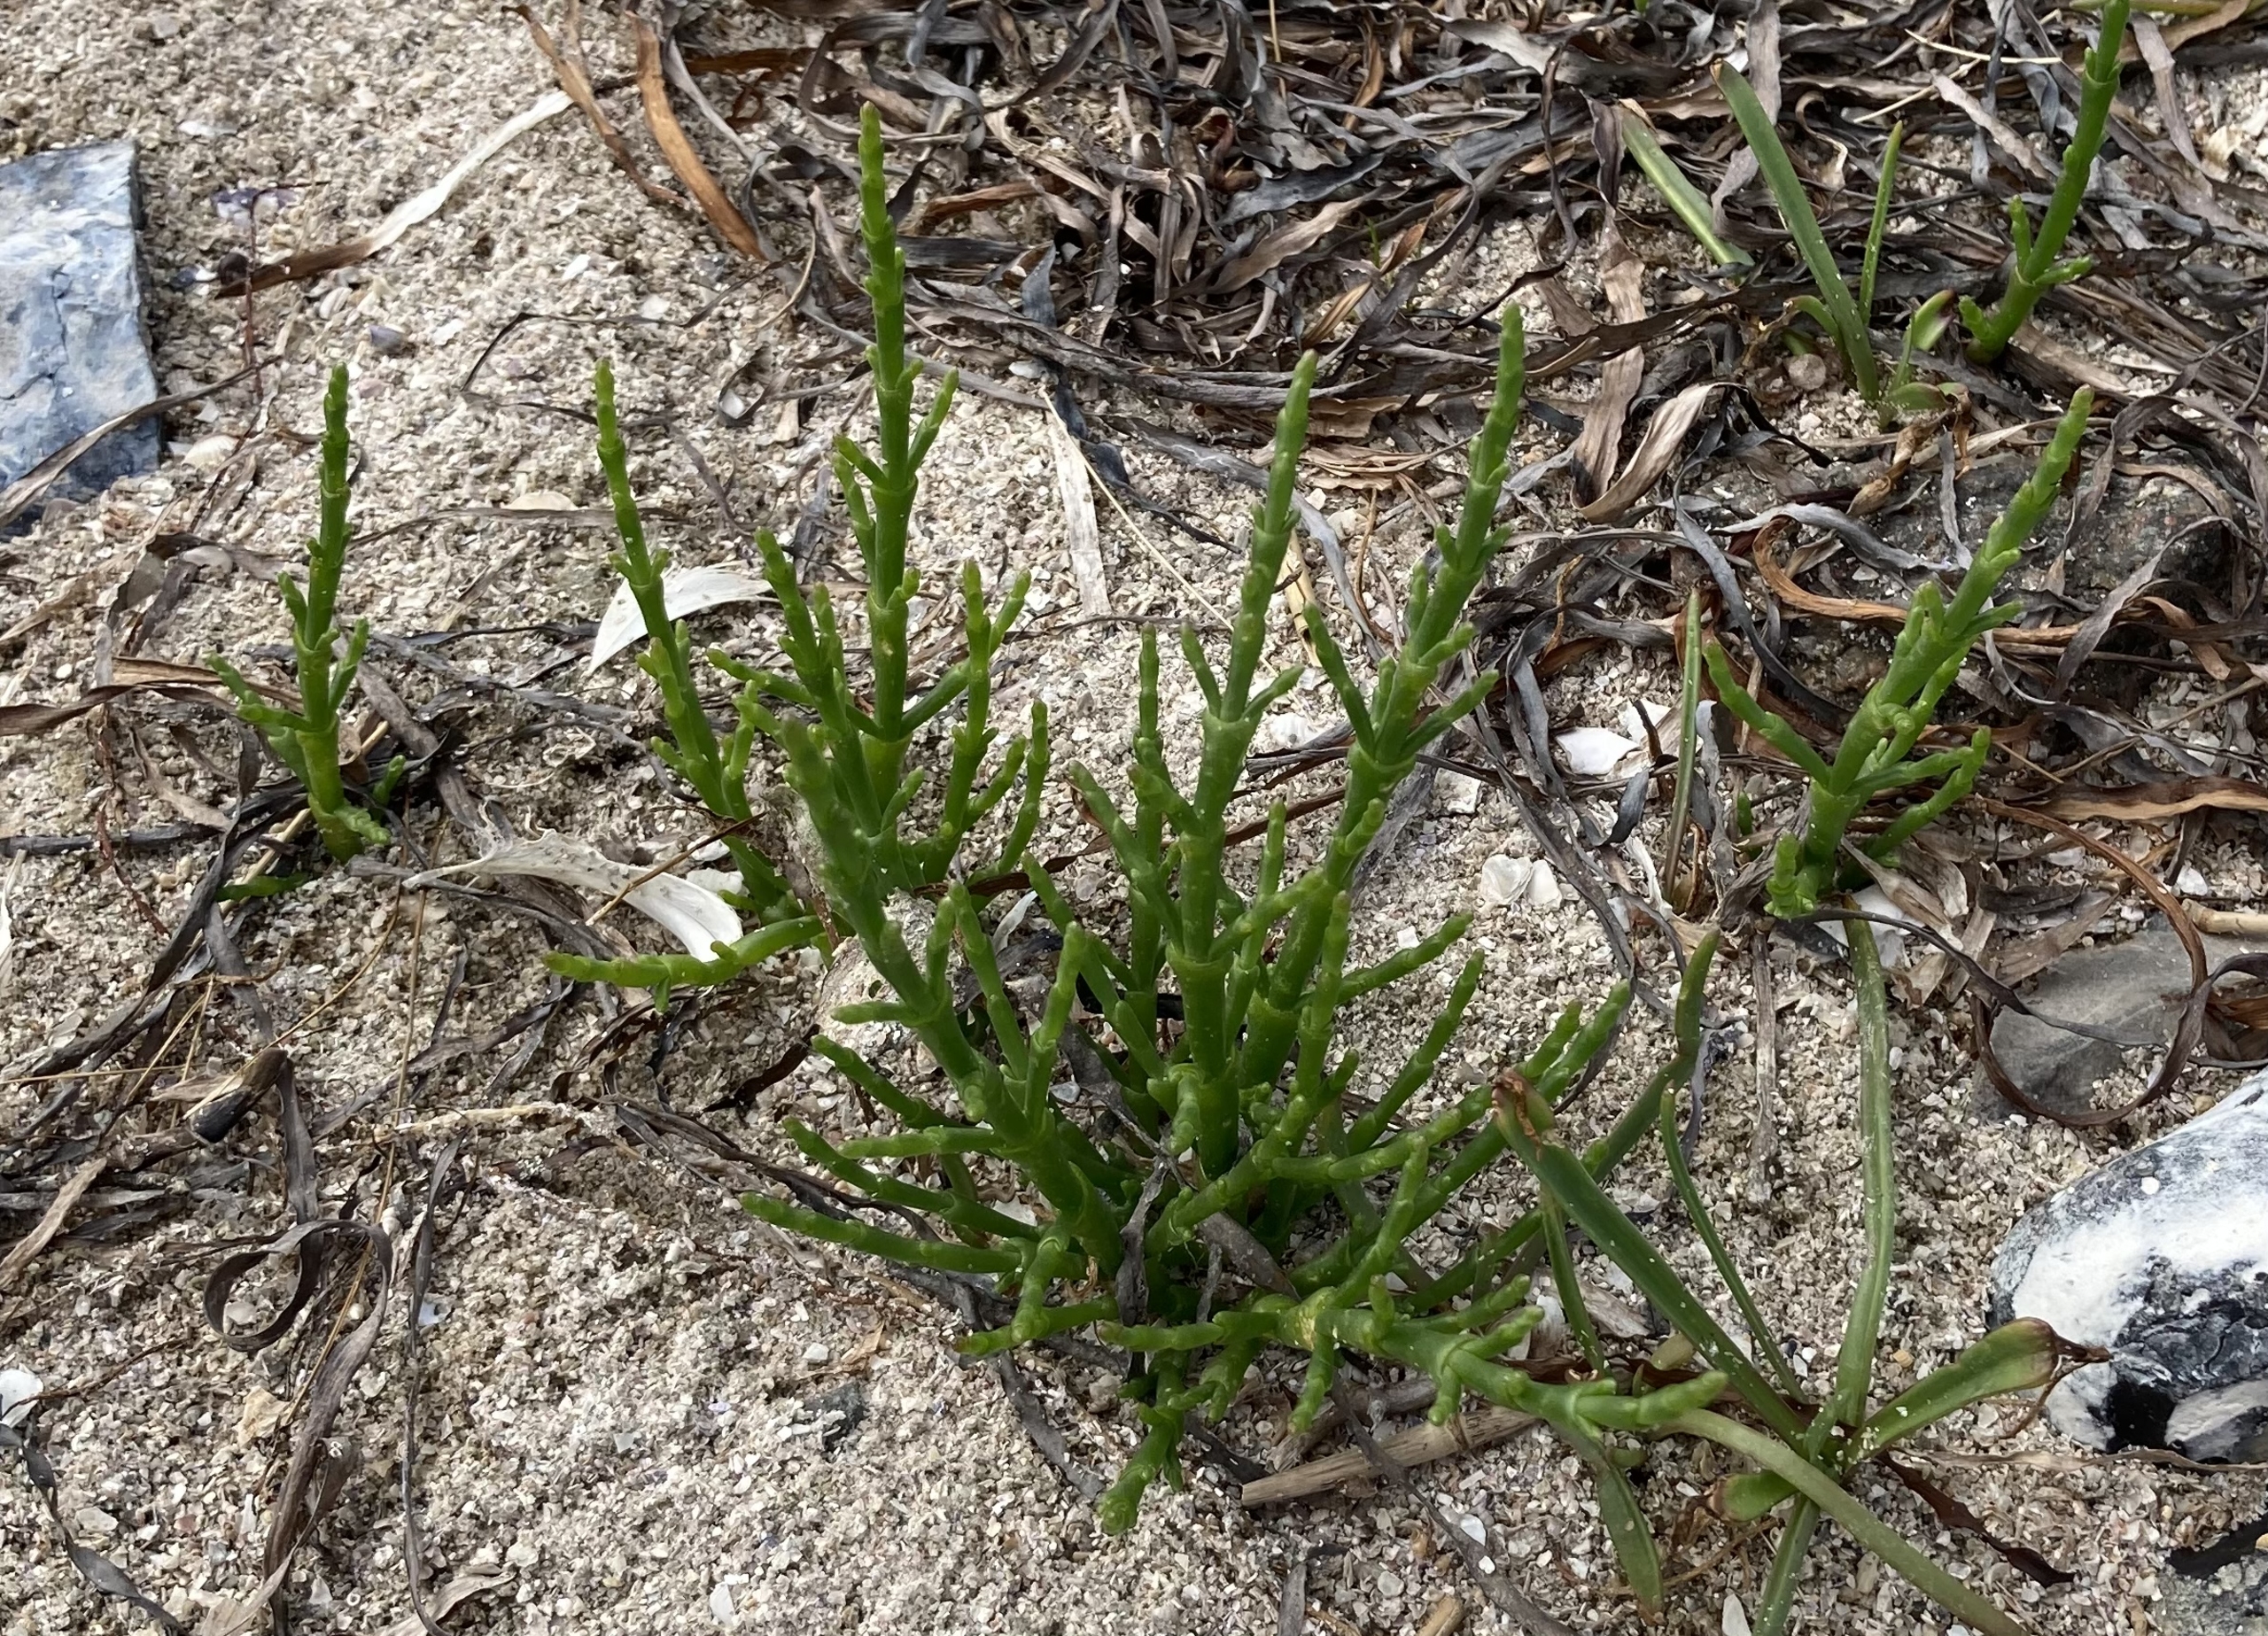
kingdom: Plantae
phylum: Tracheophyta
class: Magnoliopsida
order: Caryophyllales
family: Amaranthaceae
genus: Salicornia
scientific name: Salicornia europaea
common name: Almindelig salturt
